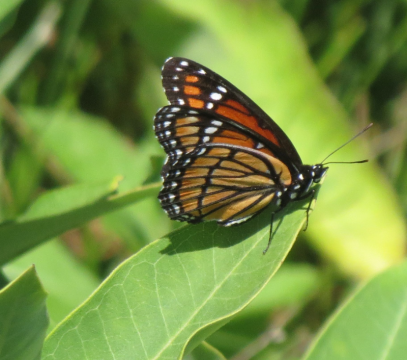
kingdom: Animalia
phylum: Arthropoda
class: Insecta
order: Lepidoptera
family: Nymphalidae
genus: Limenitis
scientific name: Limenitis archippus
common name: Viceroy
